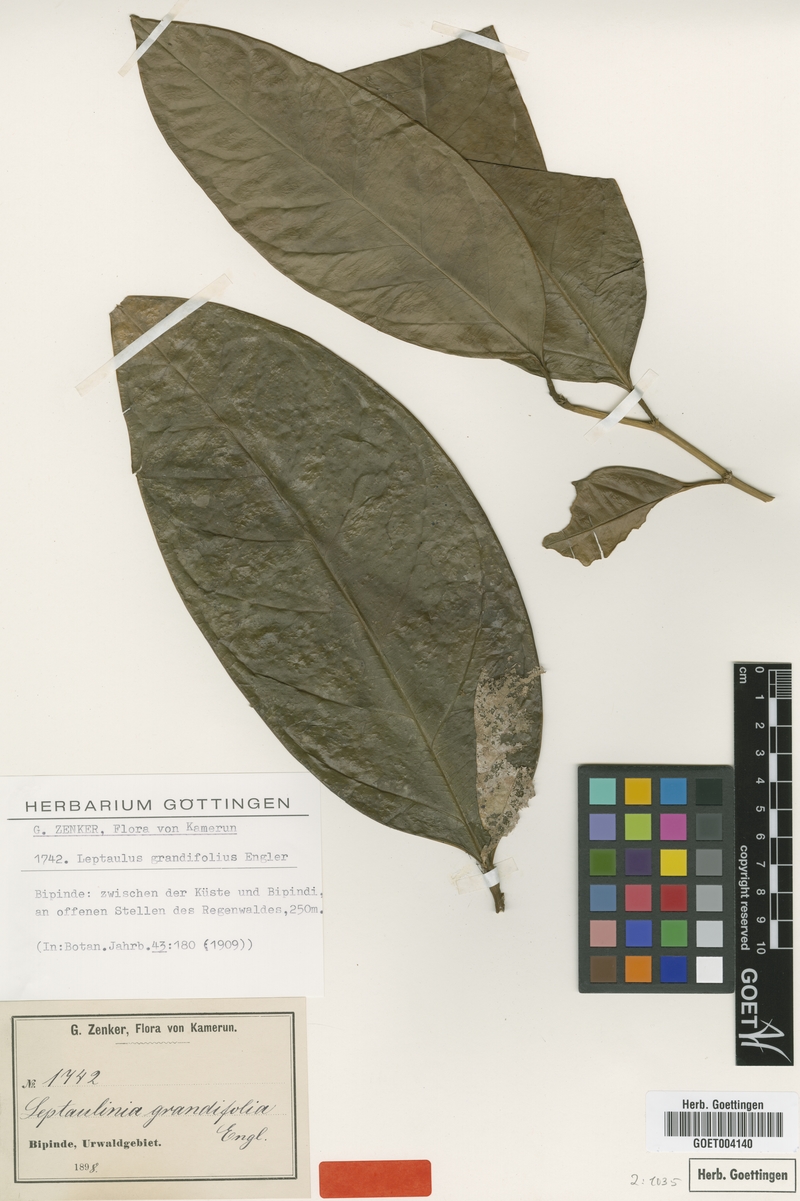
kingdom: Plantae
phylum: Tracheophyta
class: Magnoliopsida
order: Cardiopteridales
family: Cardiopteridaceae
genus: Leptaulus
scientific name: Leptaulus grandifolius
